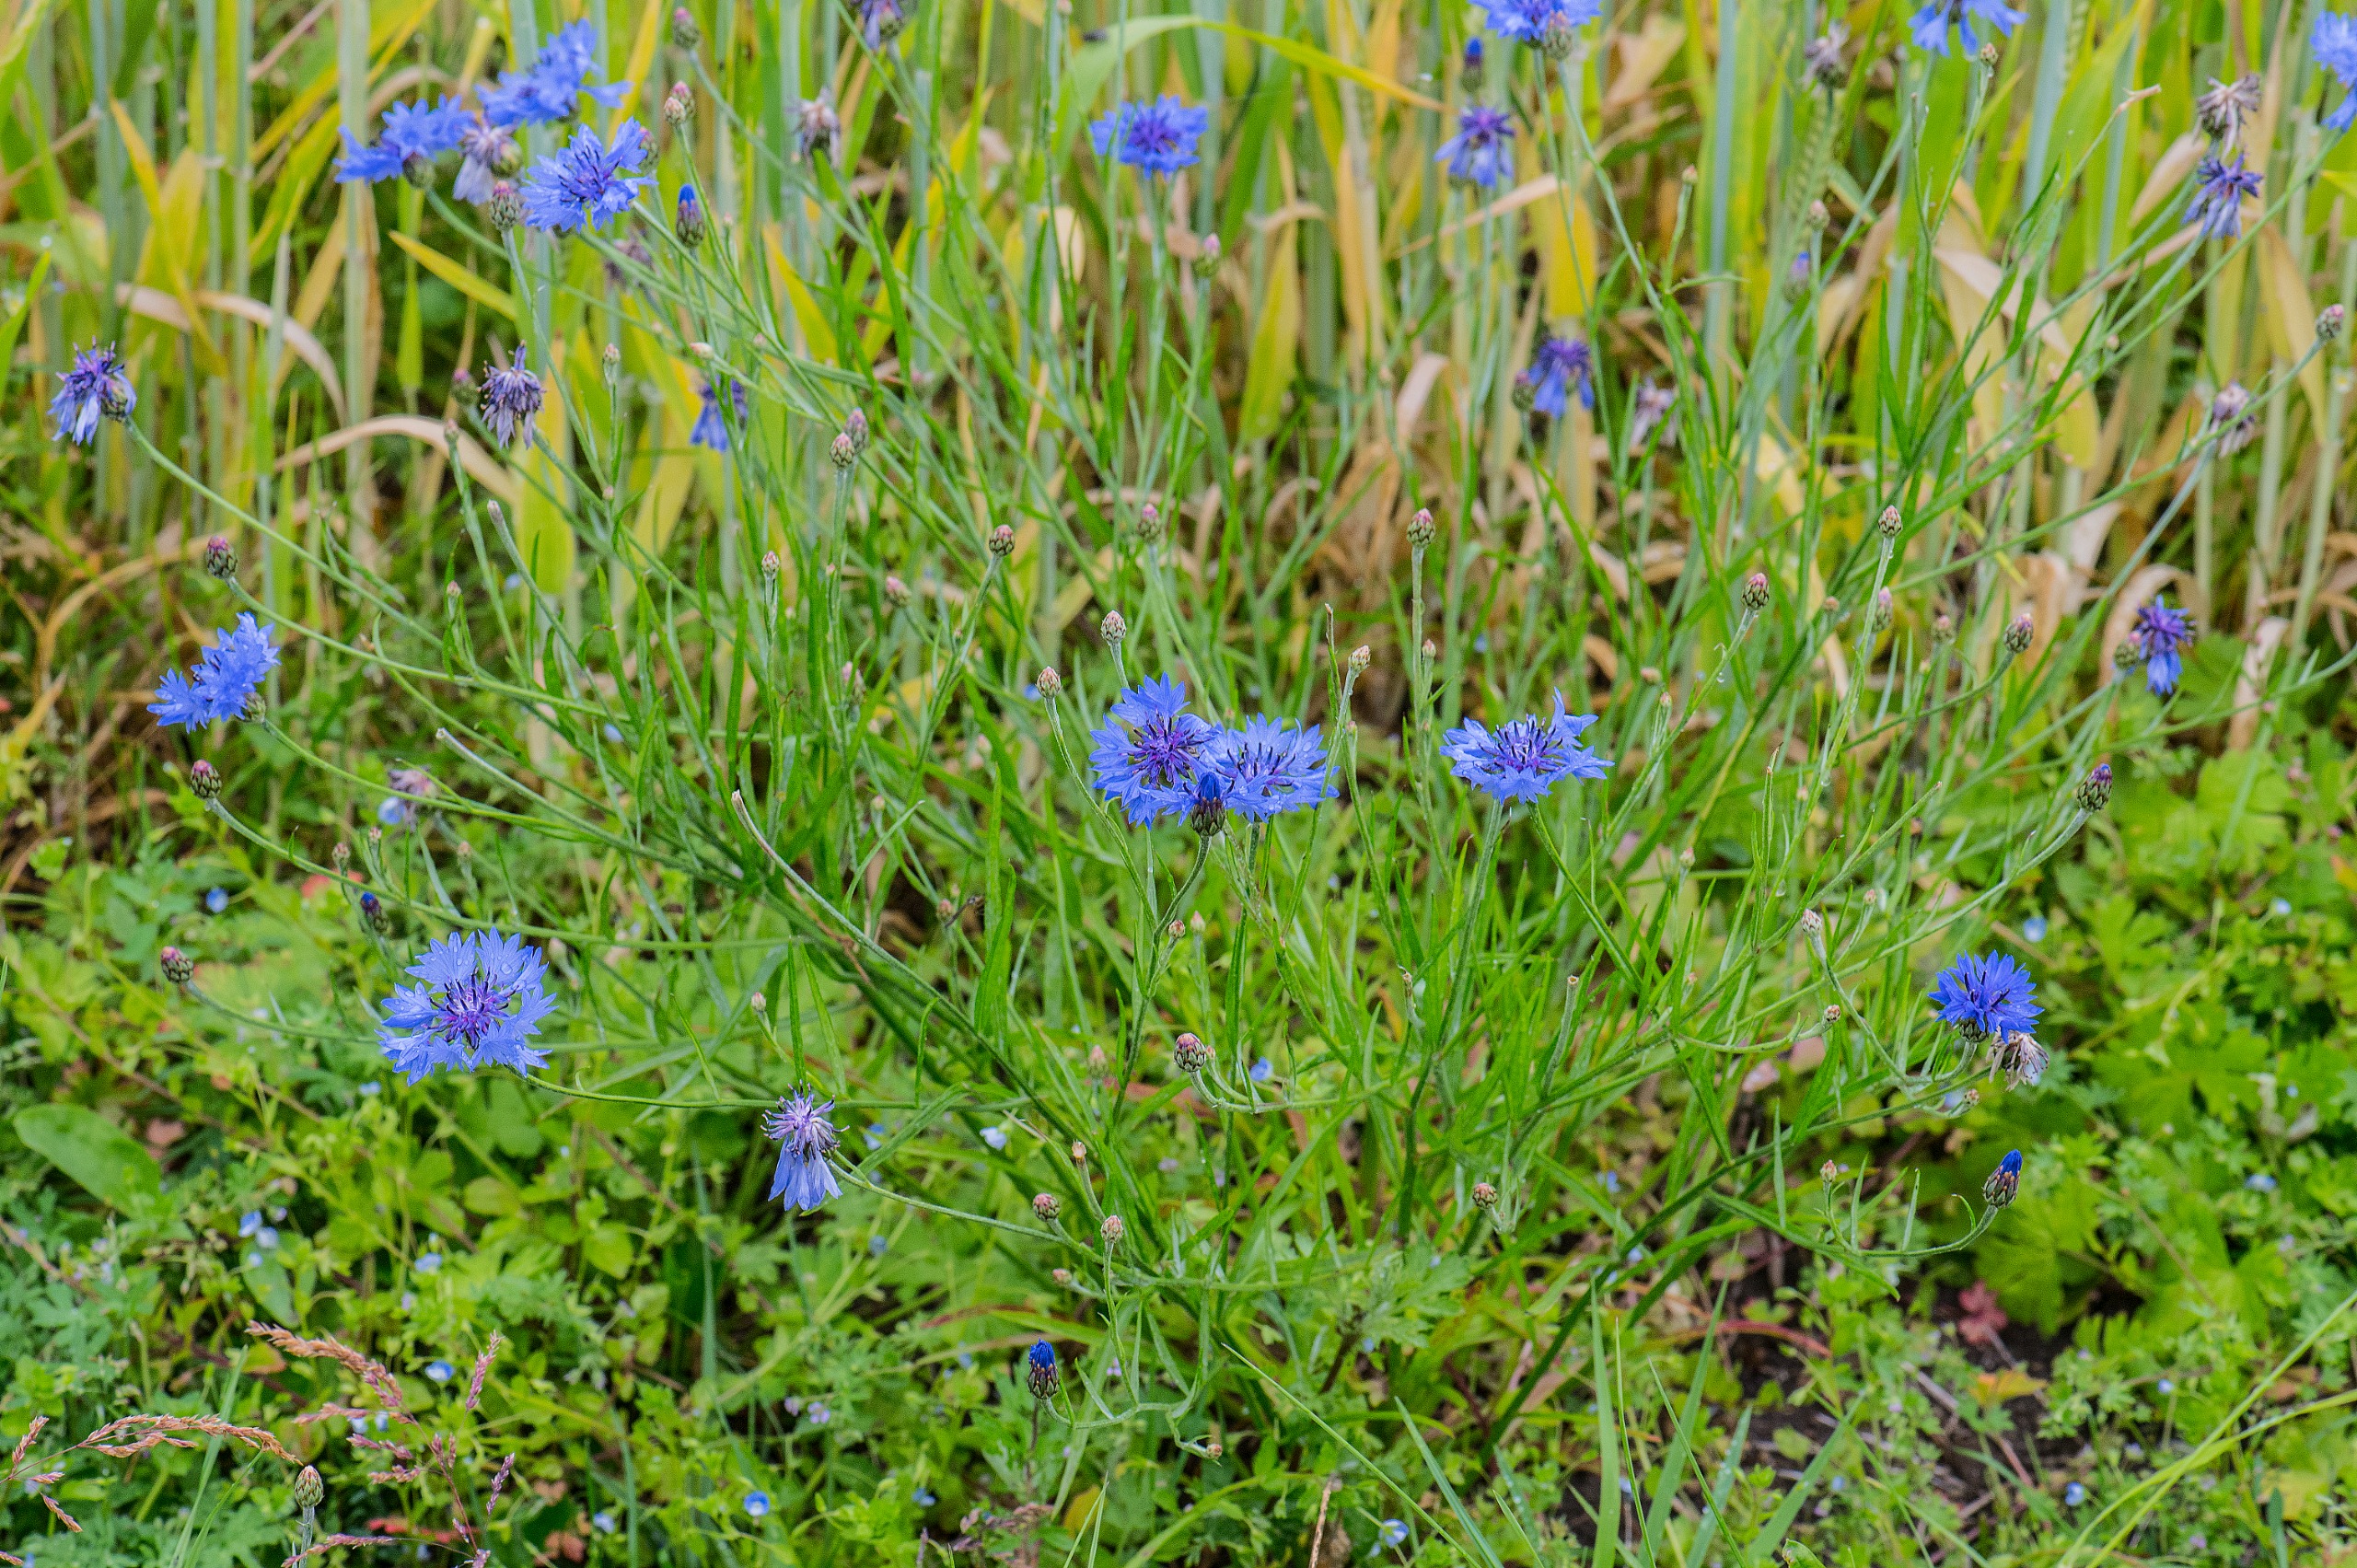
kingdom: Plantae
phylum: Tracheophyta
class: Magnoliopsida
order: Asterales
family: Asteraceae
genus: Centaurea
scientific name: Centaurea cyanus
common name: Kornblomst
